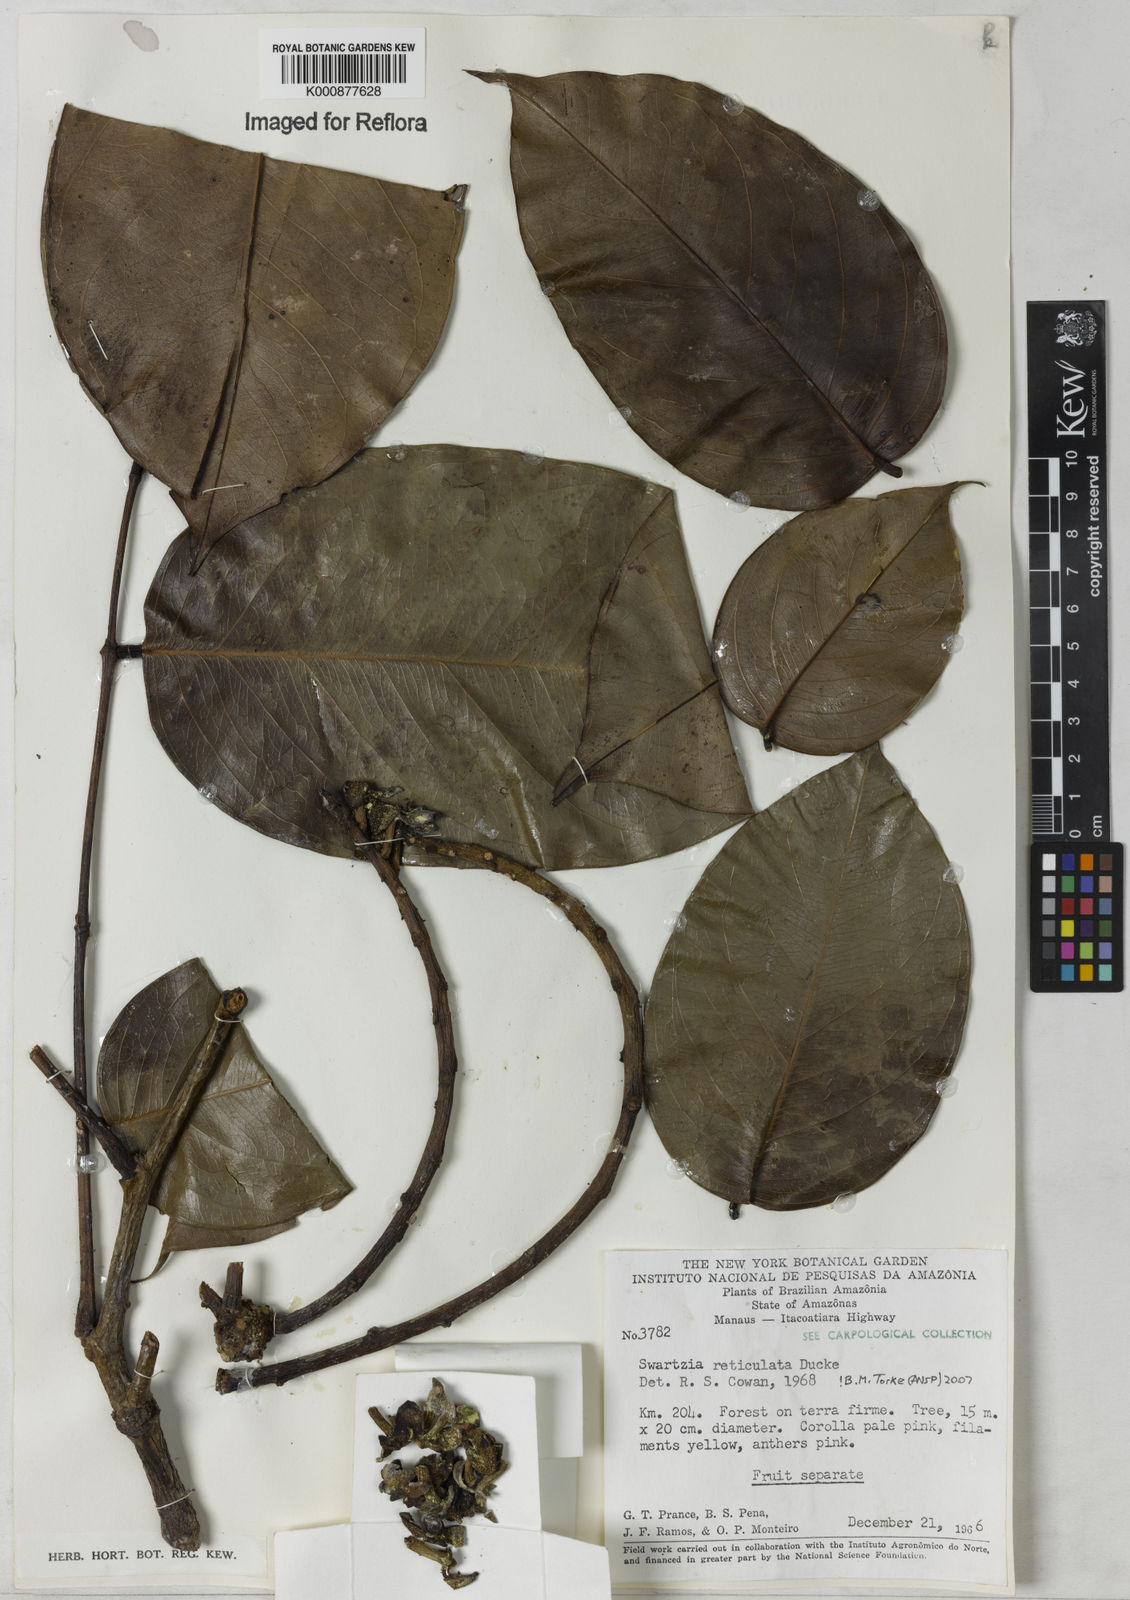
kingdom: Plantae
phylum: Tracheophyta
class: Magnoliopsida
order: Fabales
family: Fabaceae
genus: Swartzia
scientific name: Swartzia reticulata
